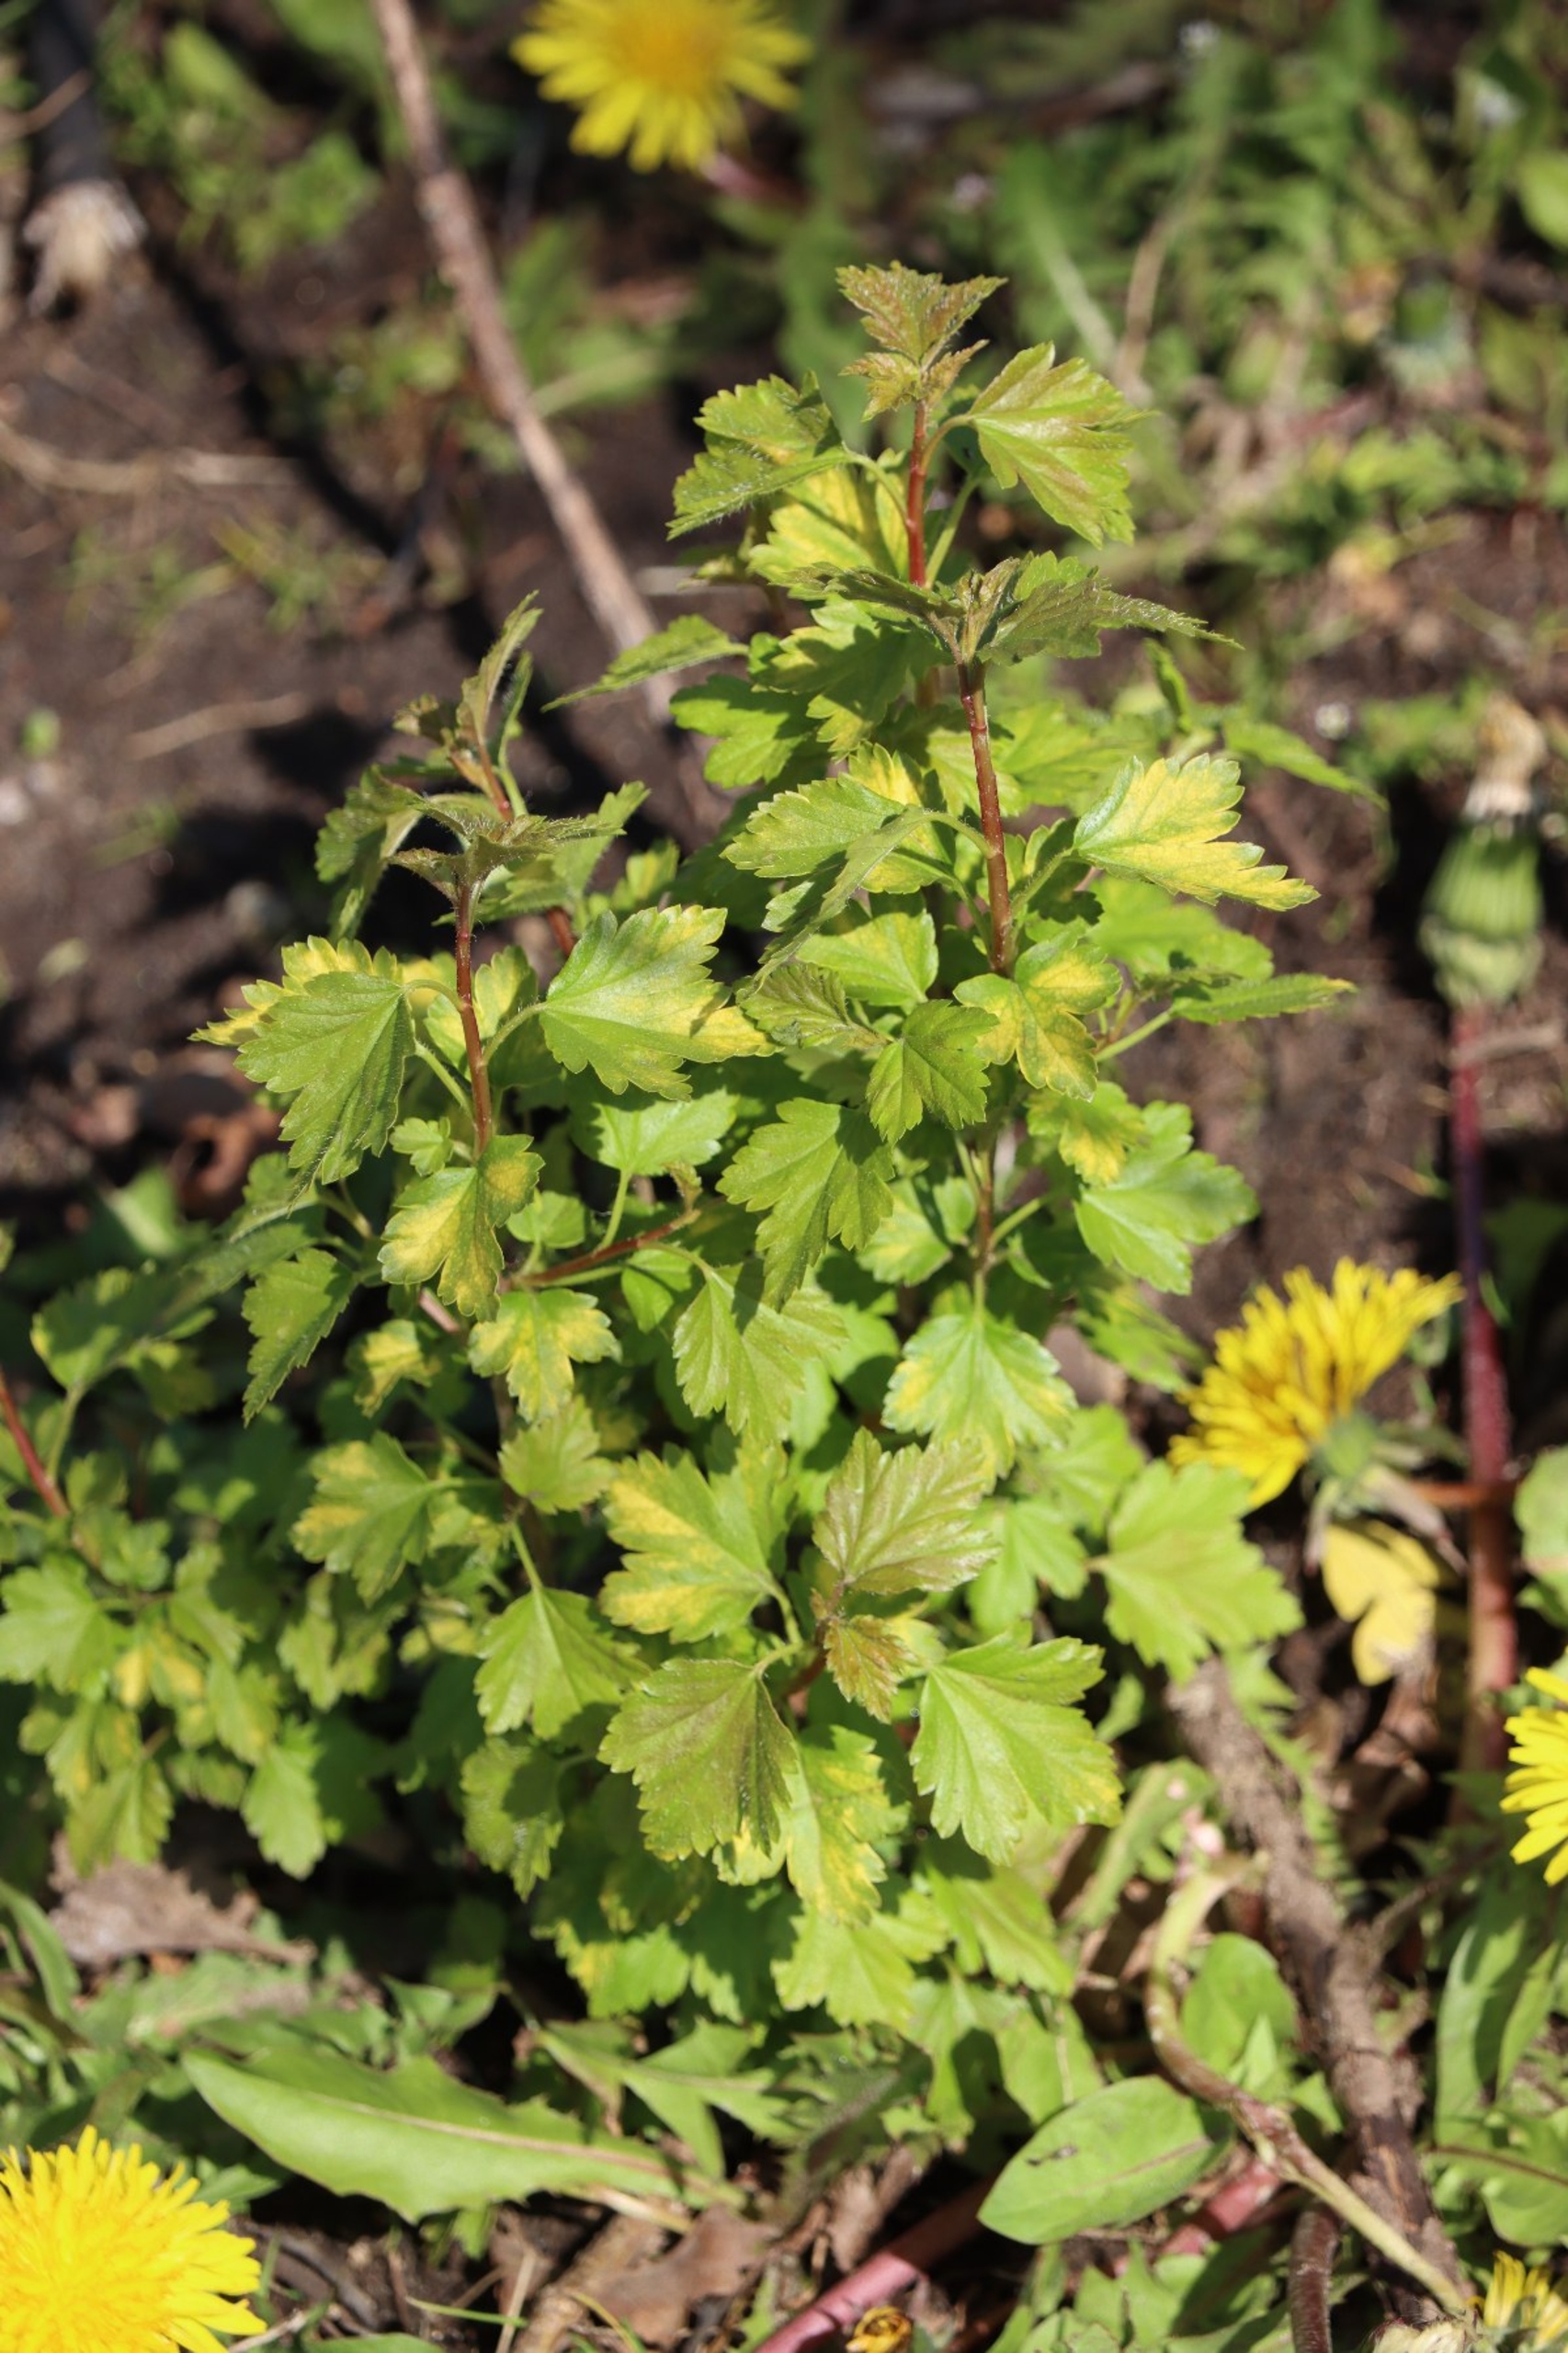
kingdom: Plantae
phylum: Tracheophyta
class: Magnoliopsida
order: Saxifragales
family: Grossulariaceae
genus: Ribes
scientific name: Ribes alpinum
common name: Fjeld-ribs
